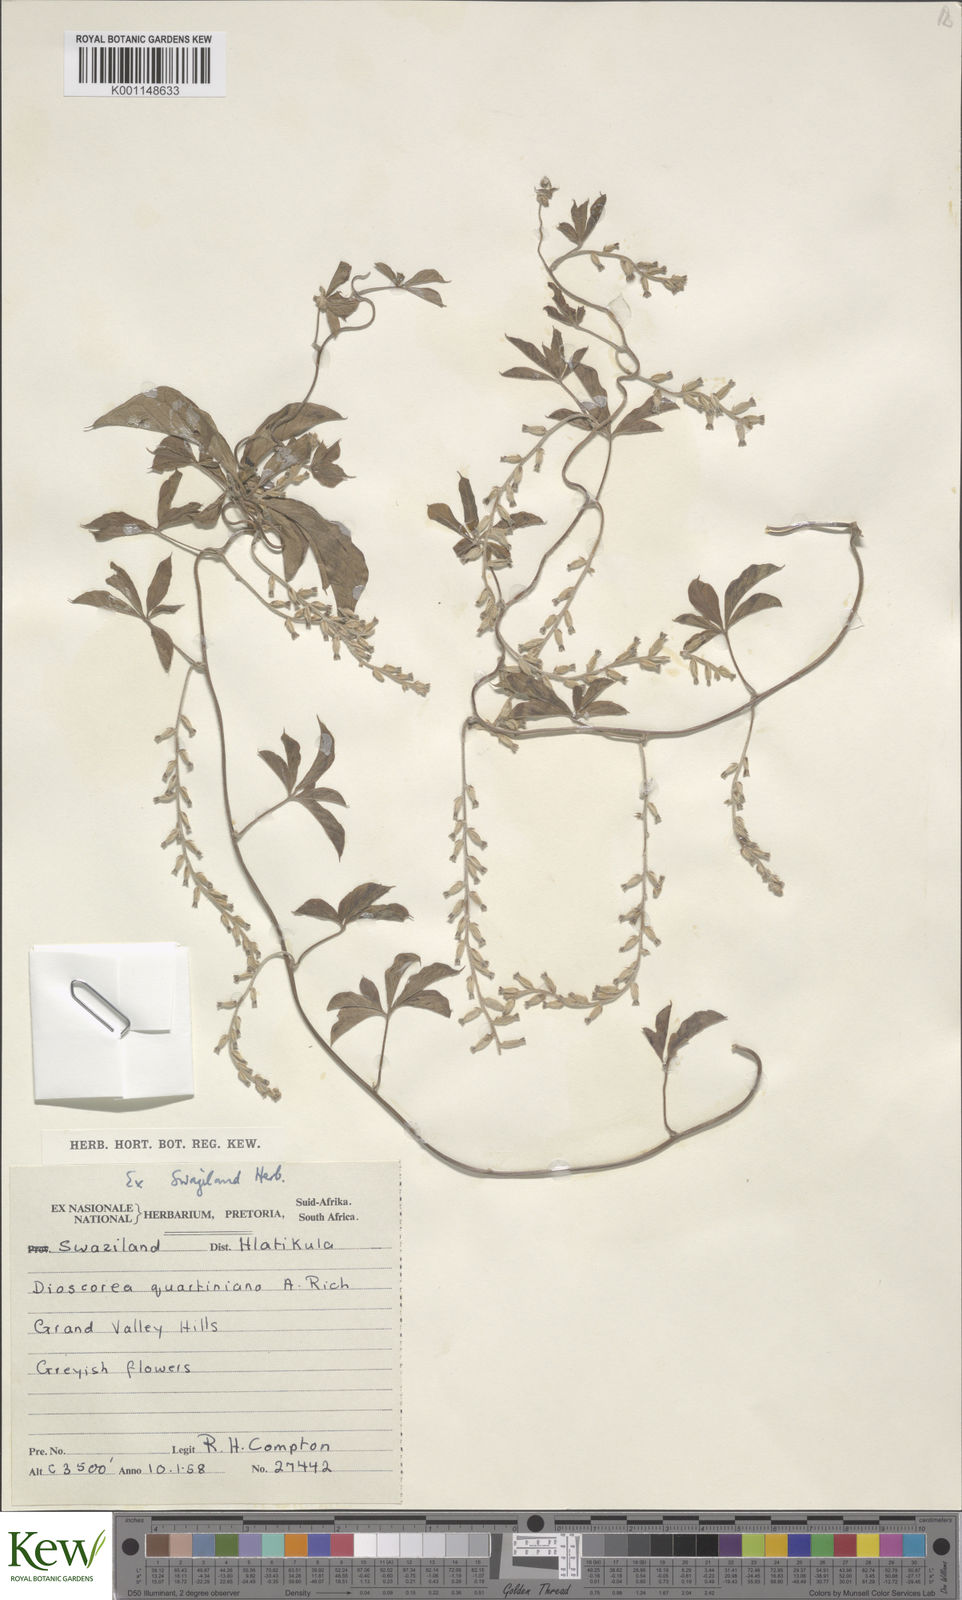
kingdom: Plantae
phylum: Tracheophyta
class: Liliopsida
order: Dioscoreales
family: Dioscoreaceae
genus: Dioscorea
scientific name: Dioscorea quartiniana
